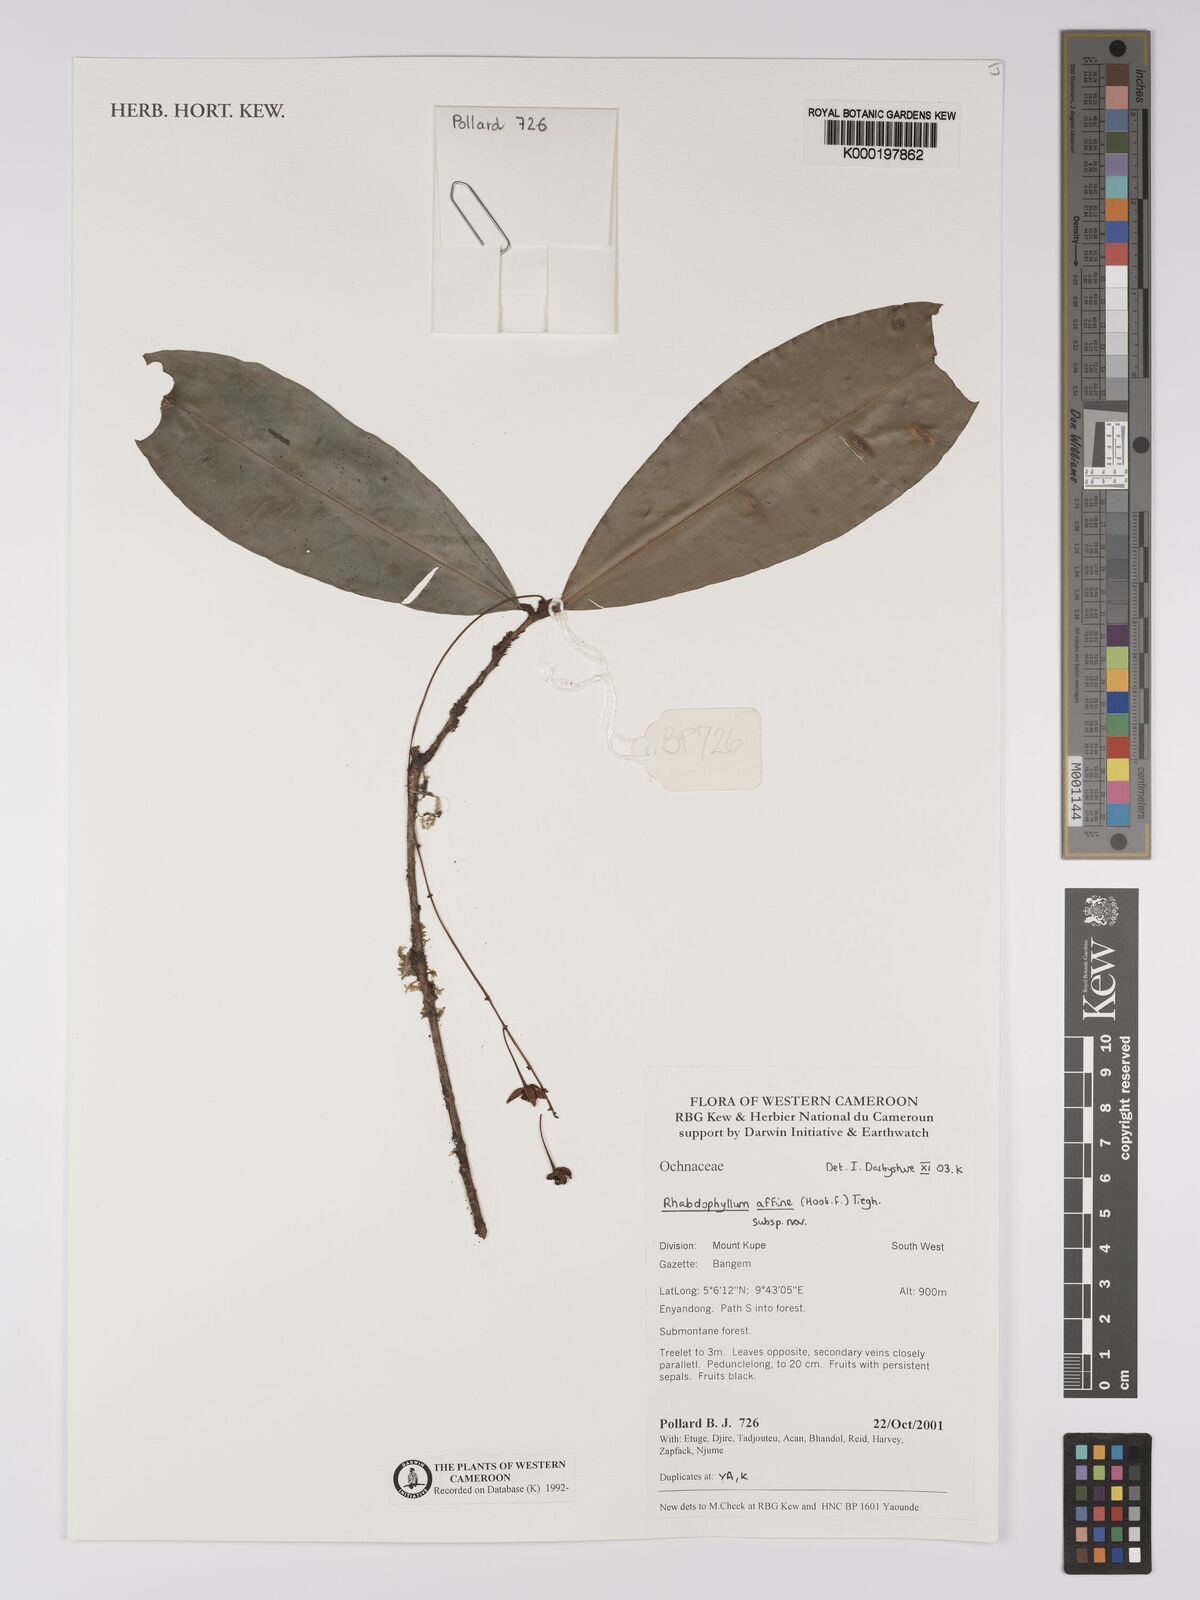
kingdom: Plantae
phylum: Tracheophyta
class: Magnoliopsida
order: Malpighiales
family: Ochnaceae
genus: Rhabdophyllum
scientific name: Rhabdophyllum affine
